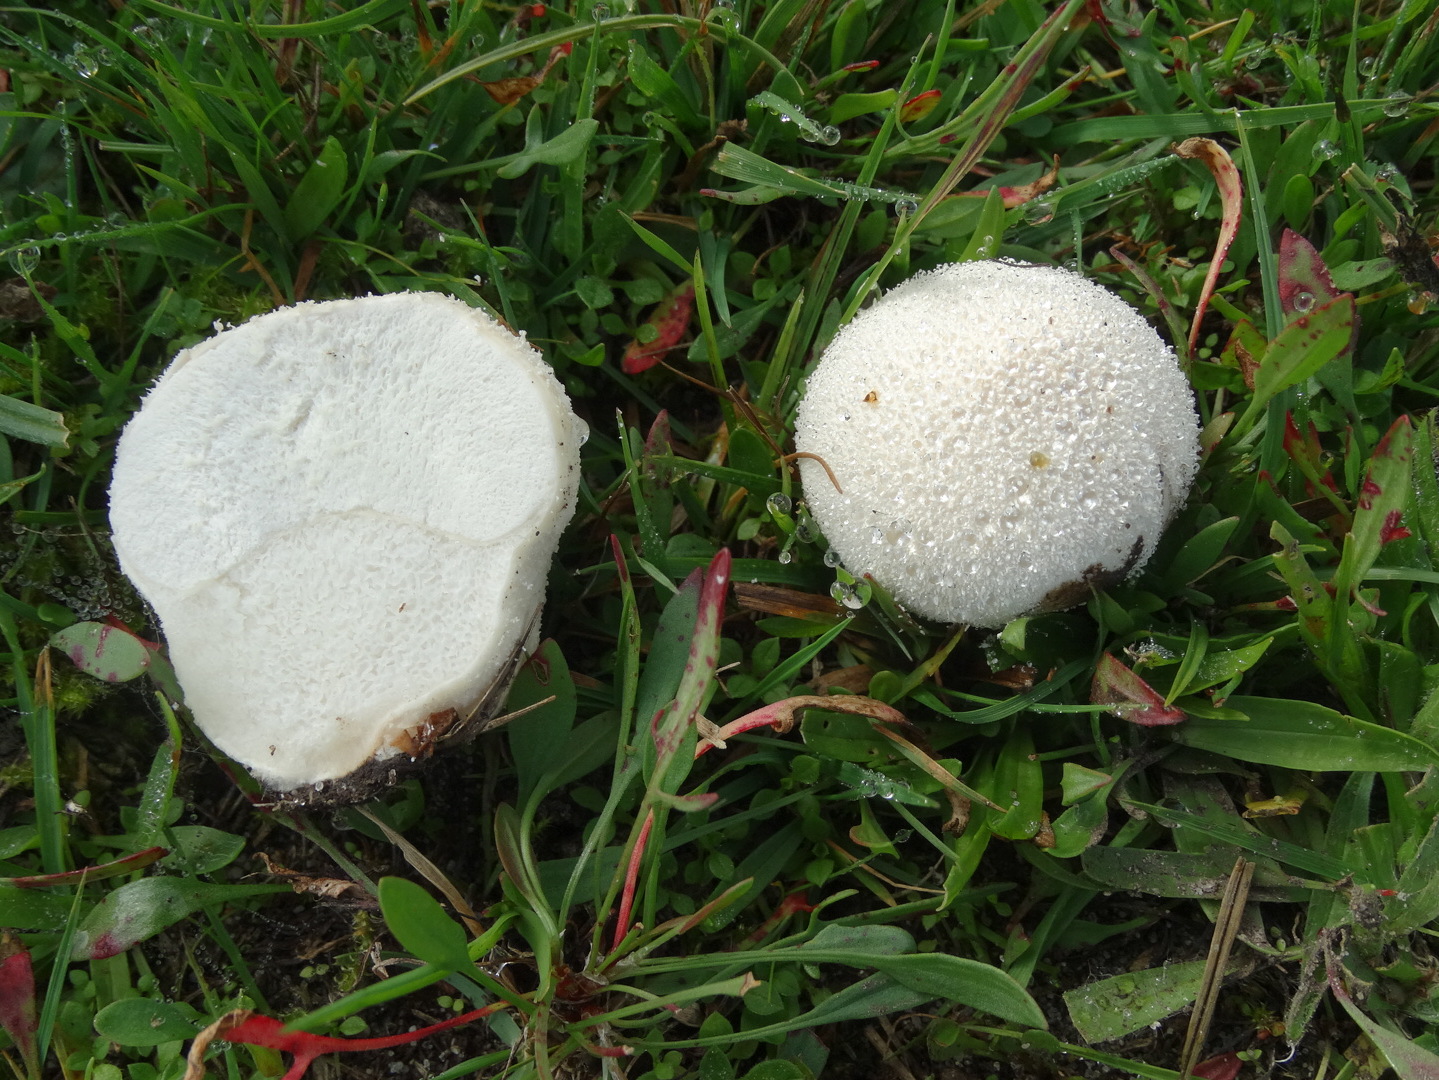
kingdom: Fungi
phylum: Basidiomycota
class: Agaricomycetes
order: Agaricales
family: Lycoperdaceae
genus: Lycoperdon
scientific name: Lycoperdon pratense
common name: flad støvbold
